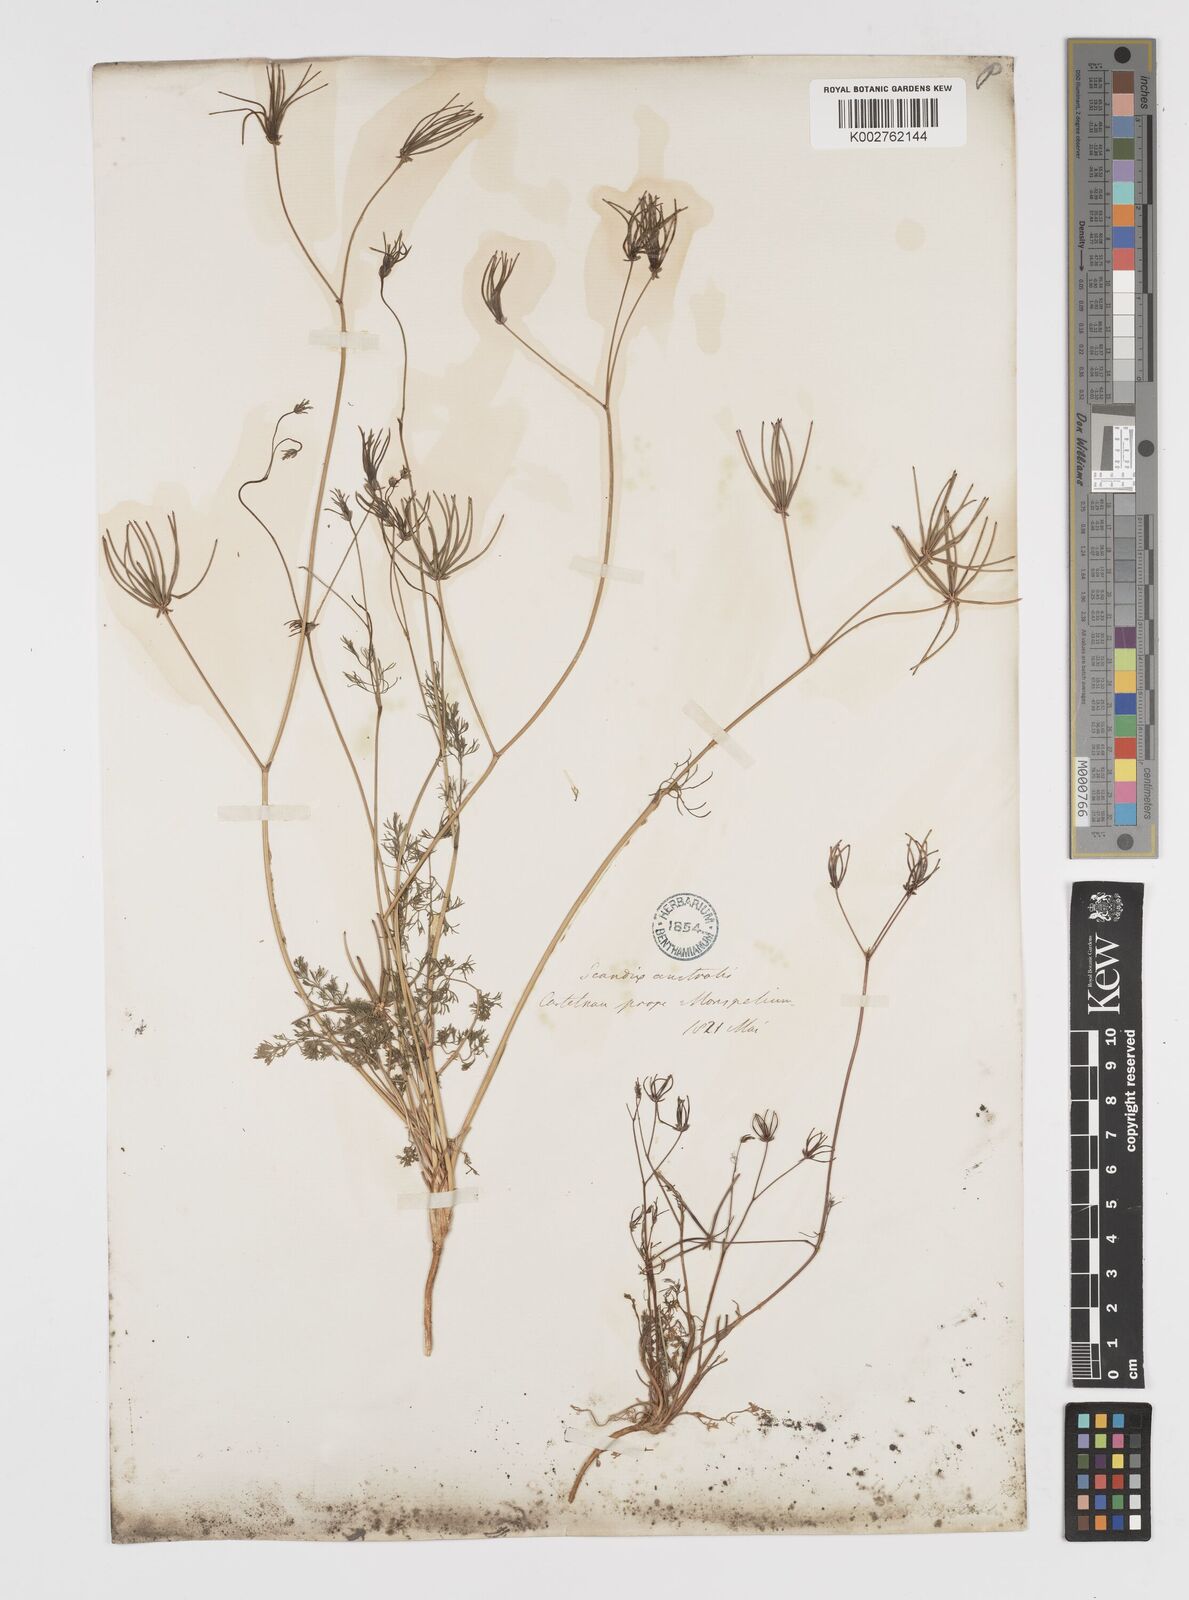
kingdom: Plantae
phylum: Tracheophyta
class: Magnoliopsida
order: Apiales
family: Apiaceae
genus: Scandix
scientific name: Scandix australis
